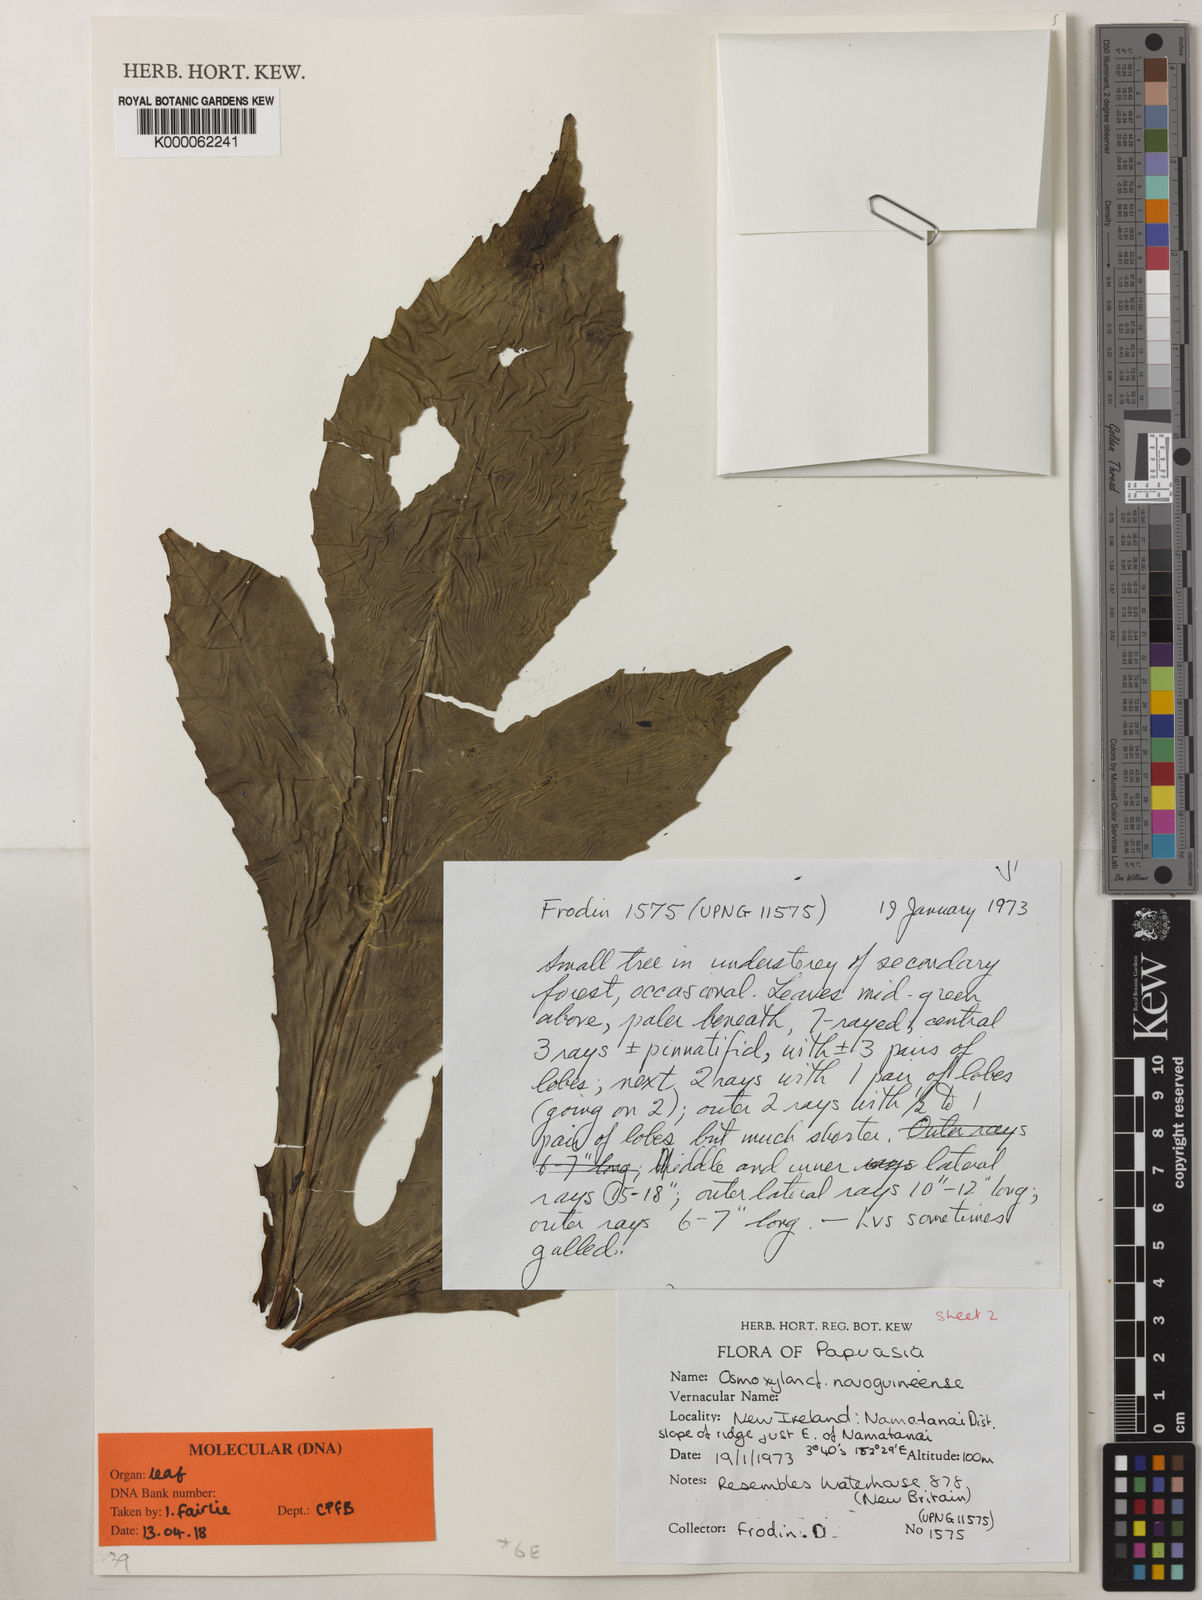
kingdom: Plantae
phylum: Tracheophyta
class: Magnoliopsida
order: Apiales
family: Araliaceae
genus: Osmoxylon
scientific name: Osmoxylon novoguineense
